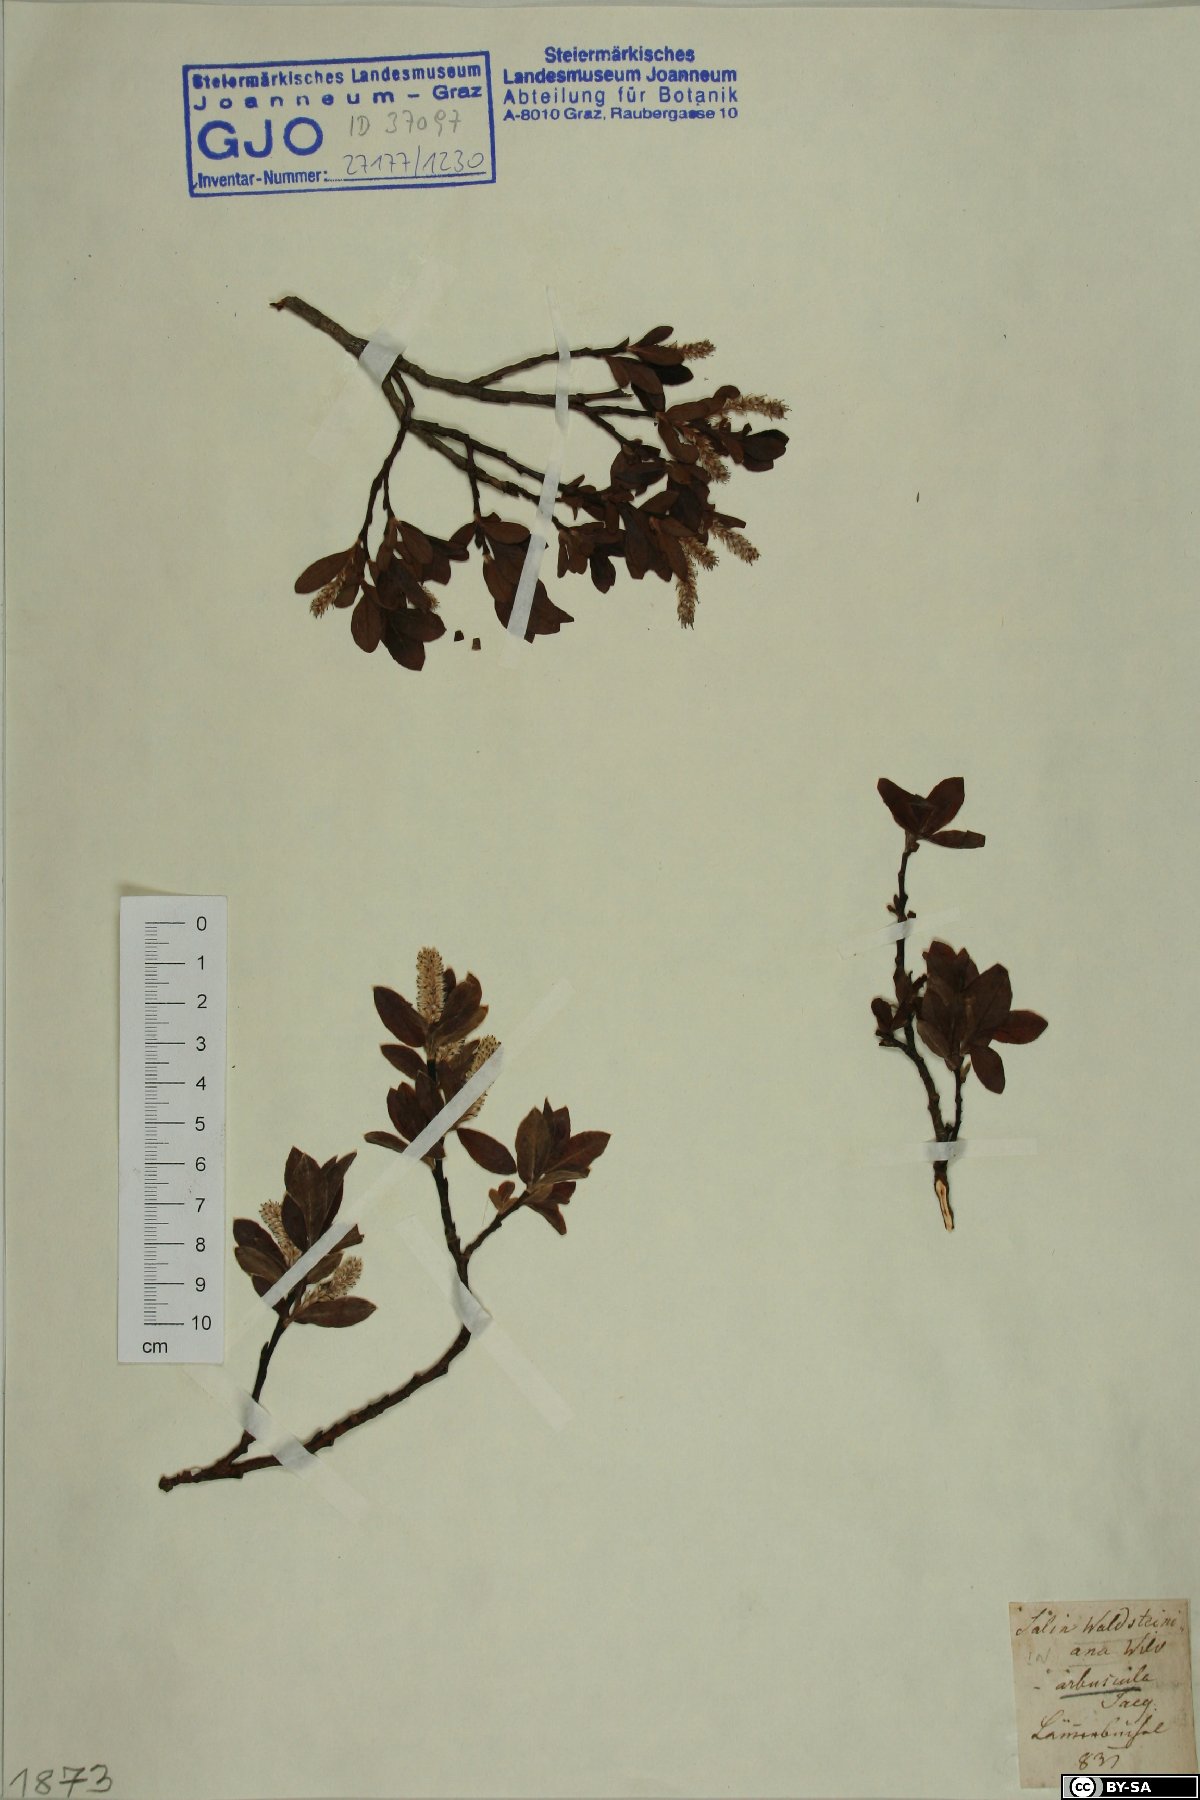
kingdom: Plantae
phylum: Tracheophyta
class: Magnoliopsida
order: Malpighiales
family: Salicaceae
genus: Salix
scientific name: Salix waldsteiniana
